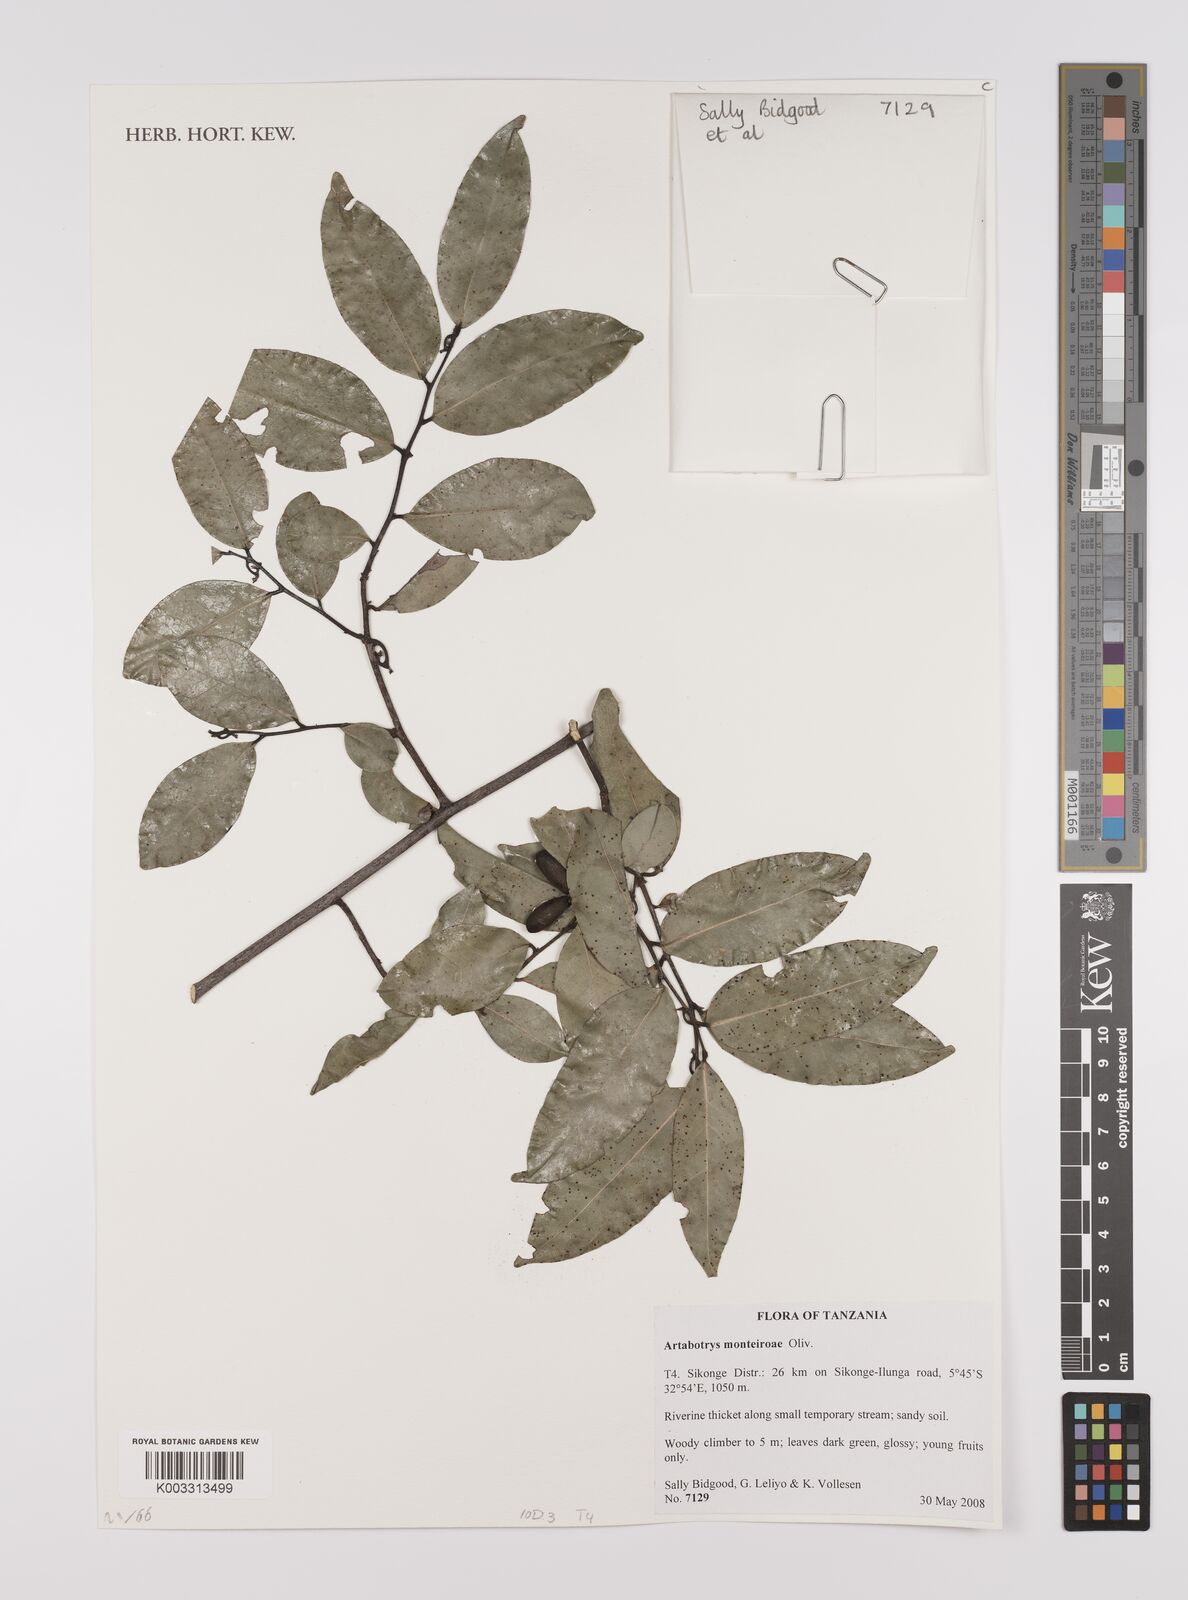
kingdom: Plantae
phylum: Tracheophyta
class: Magnoliopsida
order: Magnoliales
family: Annonaceae
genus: Artabotrys
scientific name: Artabotrys monteiroae
